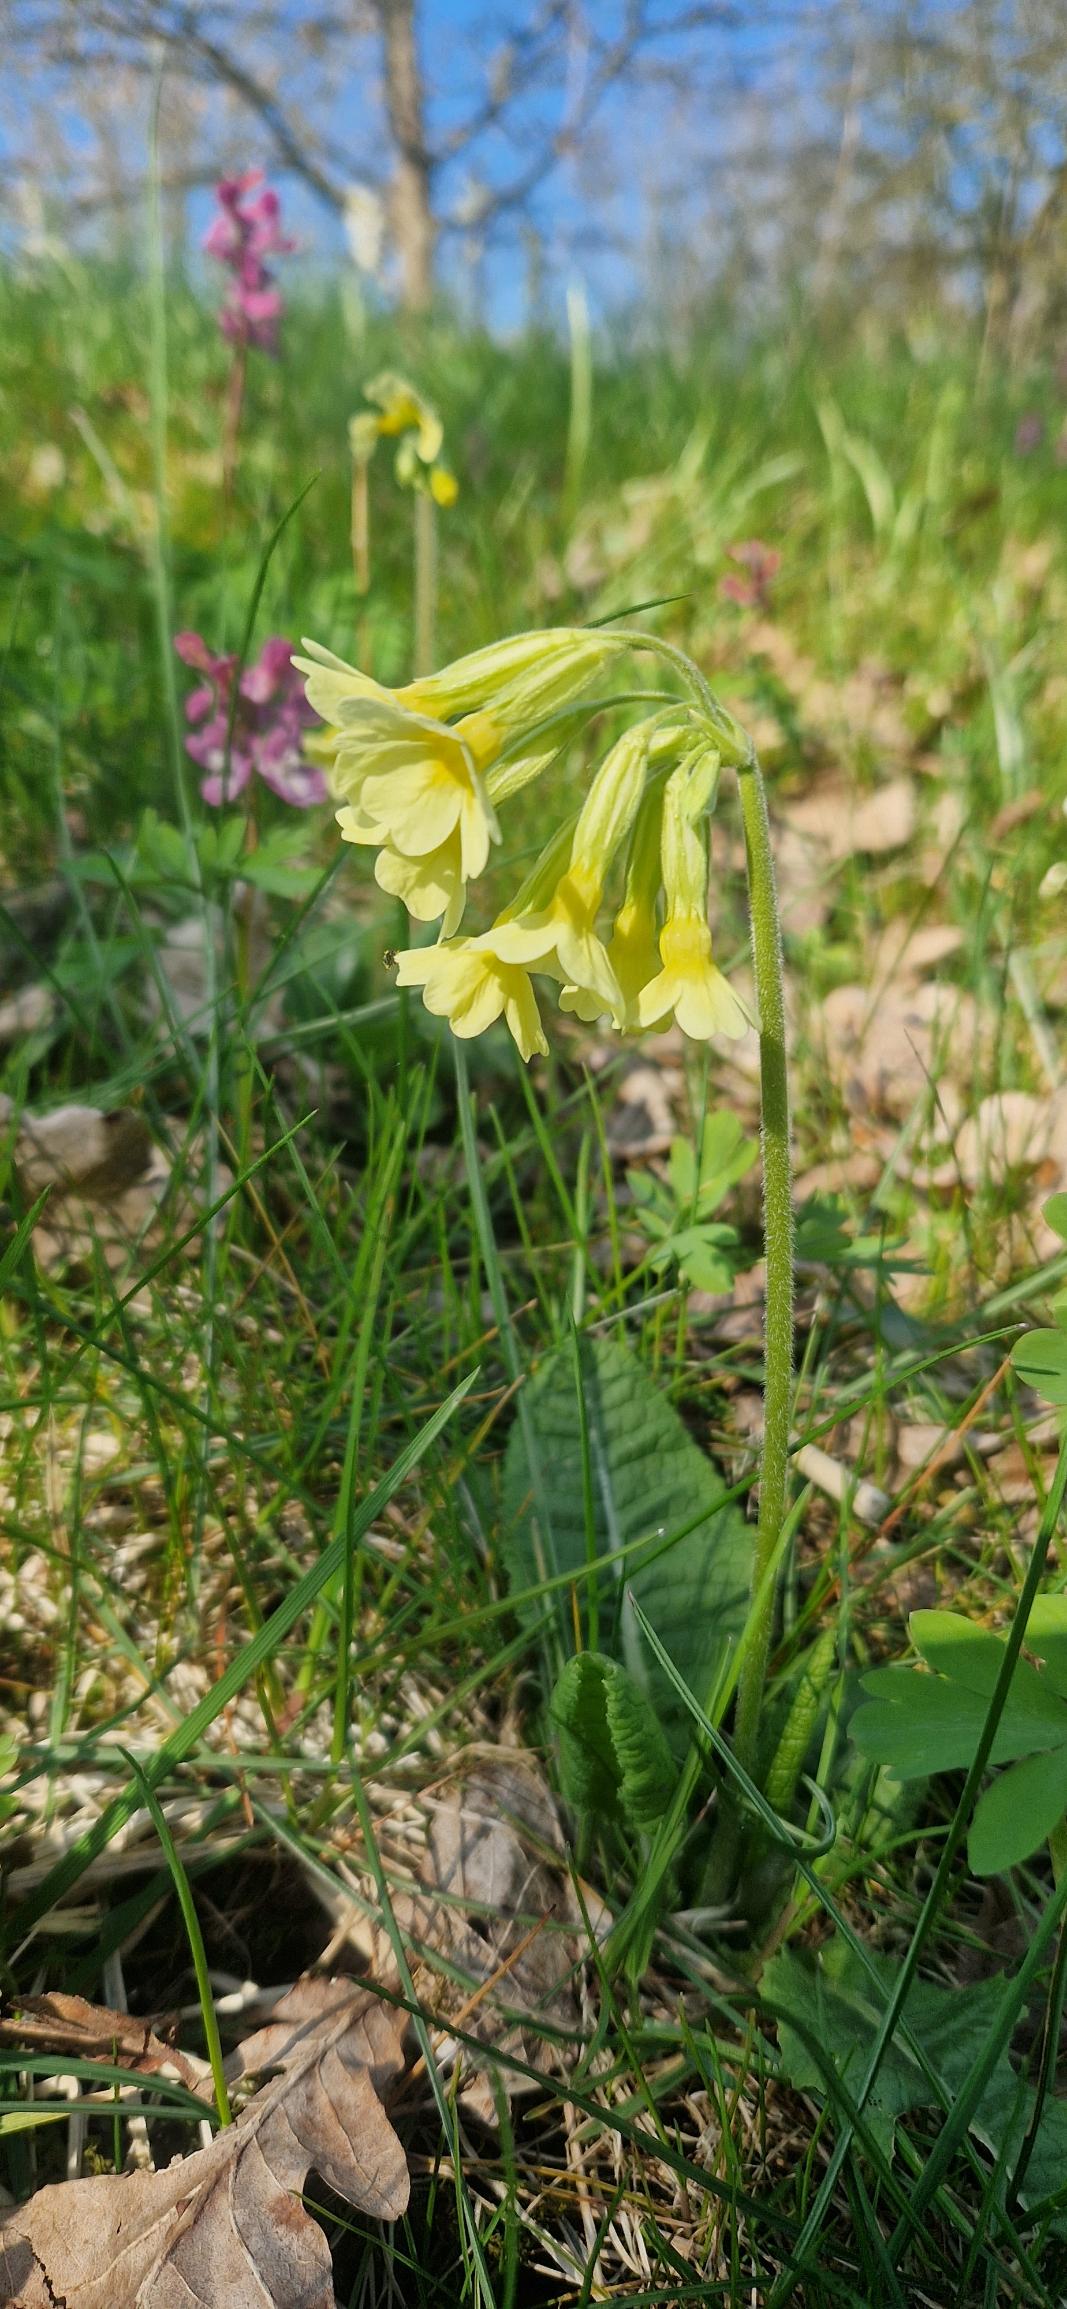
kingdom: Plantae
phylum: Tracheophyta
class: Magnoliopsida
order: Ericales
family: Primulaceae
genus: Primula
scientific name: Primula elatior
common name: Fladkravet kodriver
